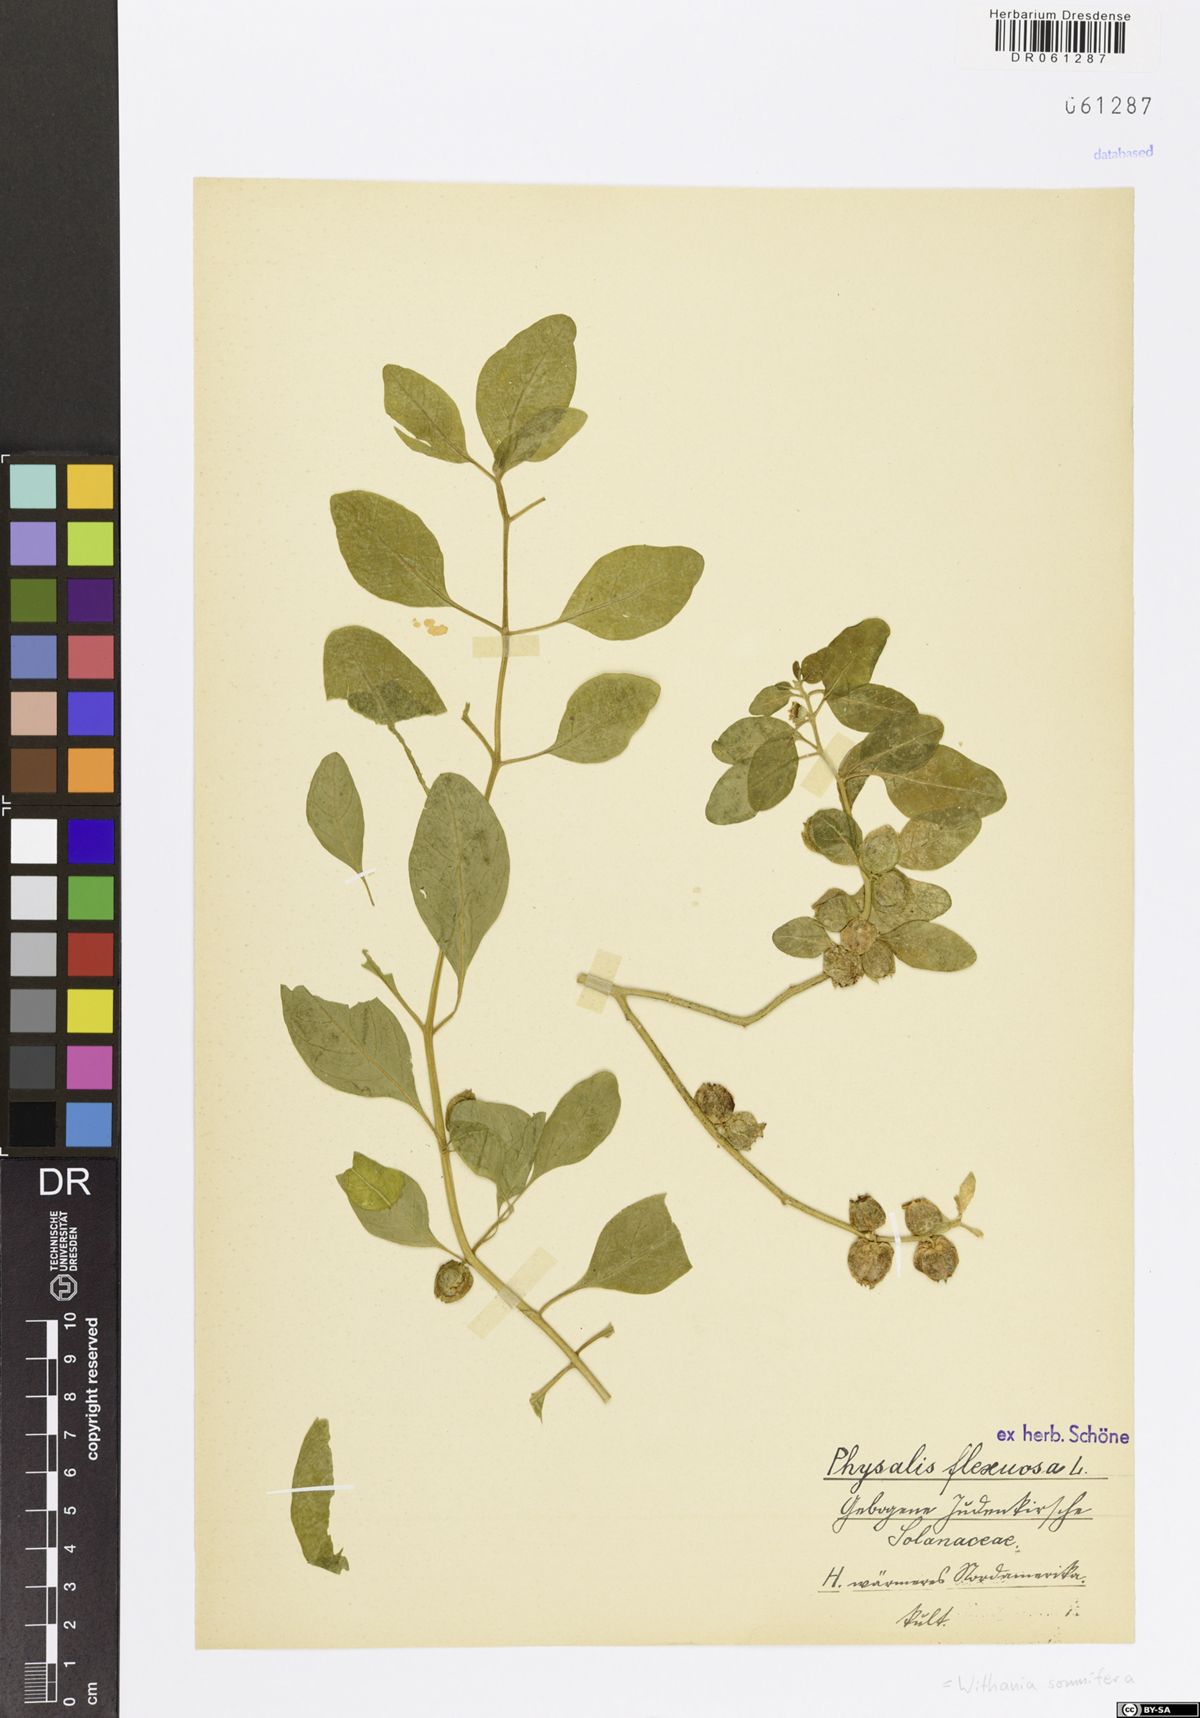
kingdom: Plantae
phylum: Tracheophyta
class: Magnoliopsida
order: Solanales
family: Solanaceae
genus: Withania
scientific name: Withania somnifera
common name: Winter-cherry
